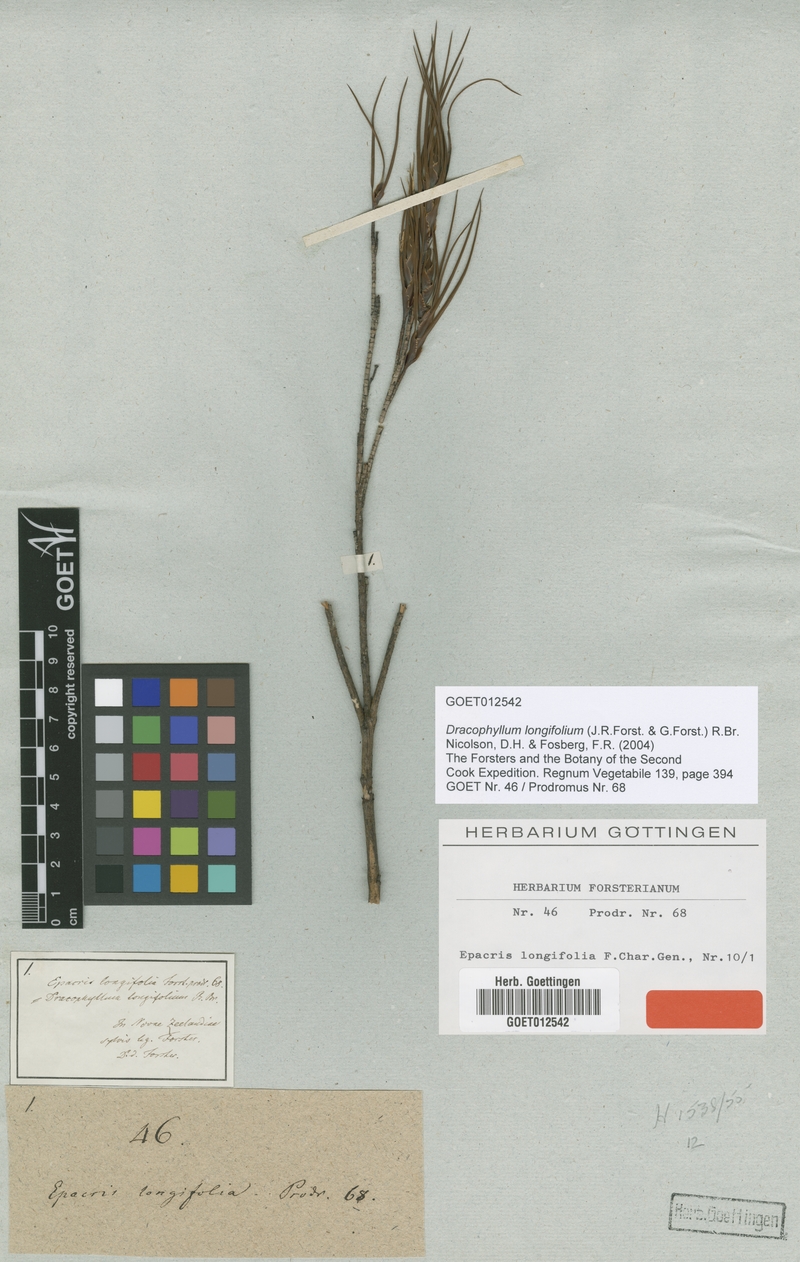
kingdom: Plantae
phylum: Tracheophyta
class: Magnoliopsida
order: Ericales
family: Ericaceae
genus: Dracophyllum
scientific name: Dracophyllum longifolium
